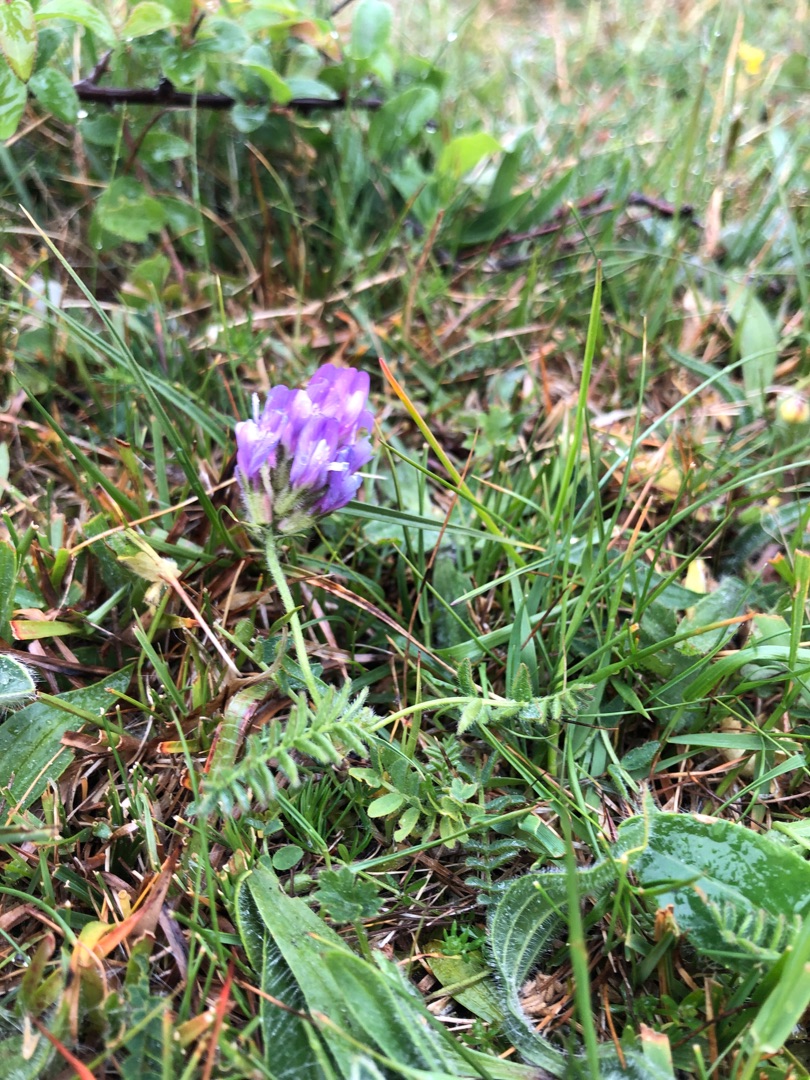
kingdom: Plantae
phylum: Tracheophyta
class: Magnoliopsida
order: Fabales
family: Fabaceae
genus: Astragalus
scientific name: Astragalus danicus
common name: Dansk astragel
